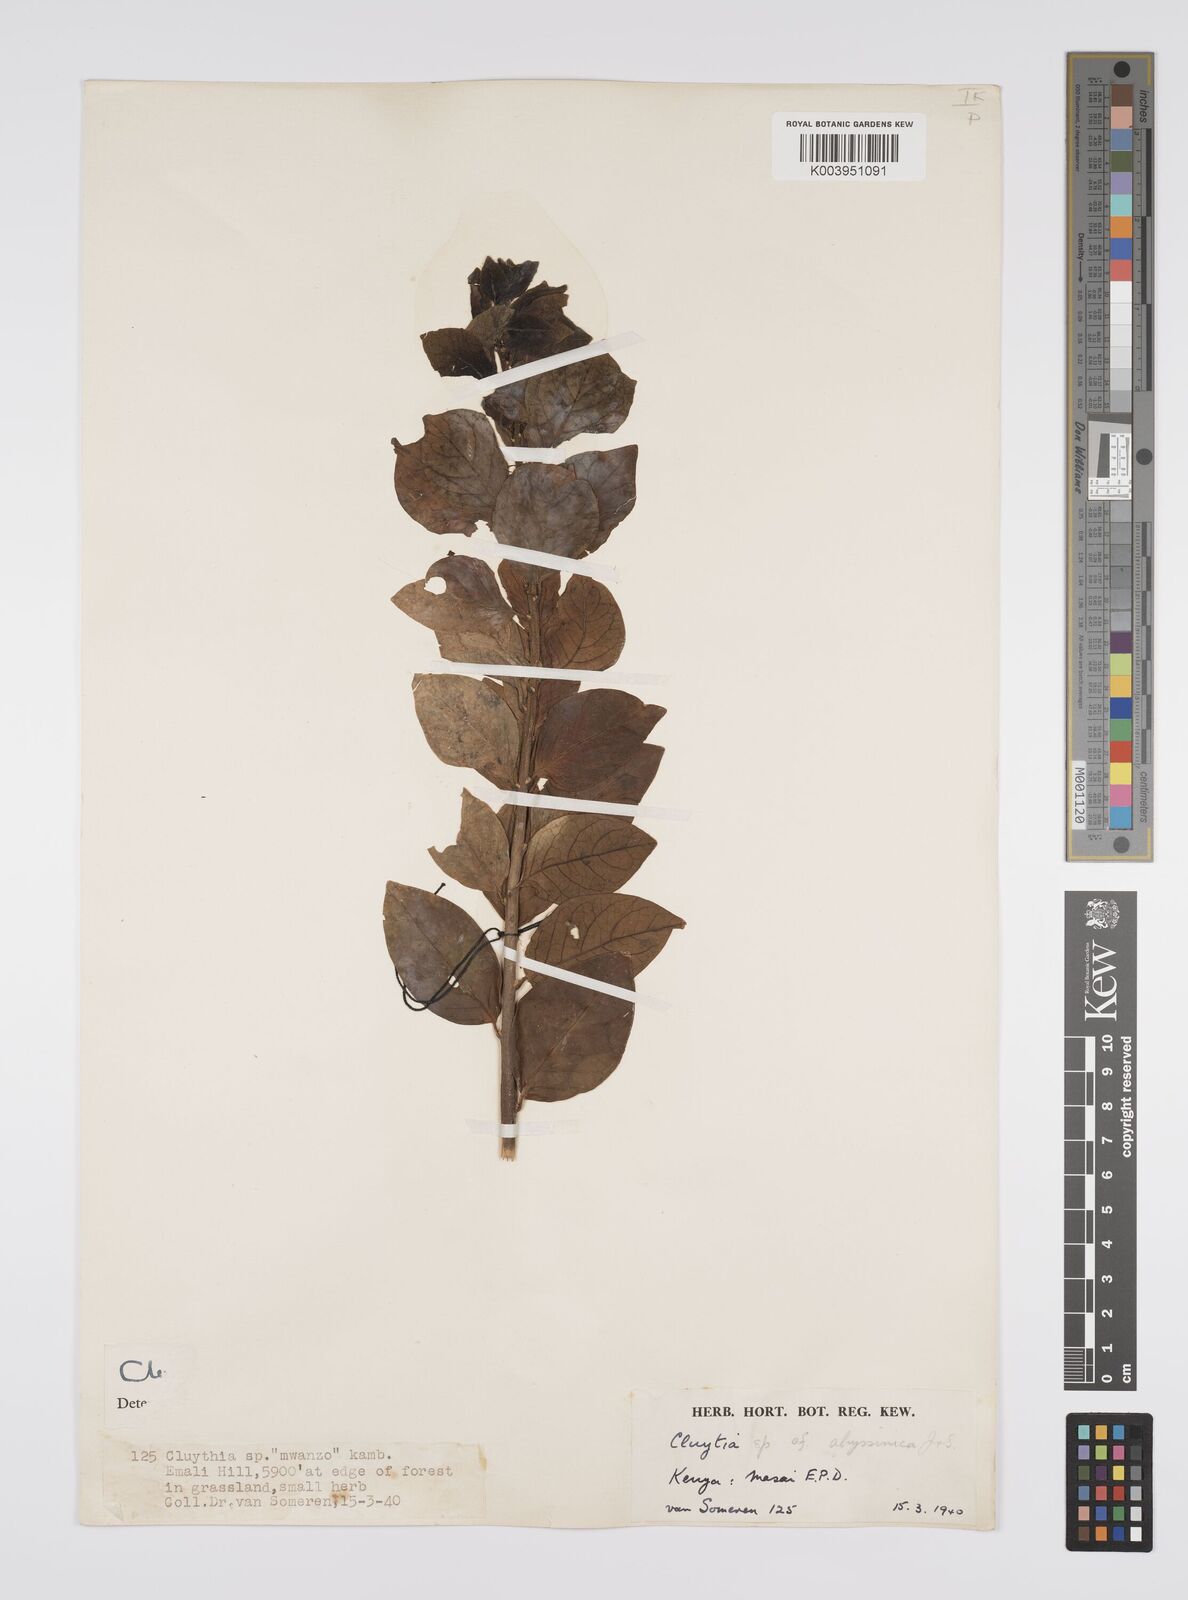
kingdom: Plantae
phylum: Tracheophyta
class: Magnoliopsida
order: Malpighiales
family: Peraceae
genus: Clutia
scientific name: Clutia
